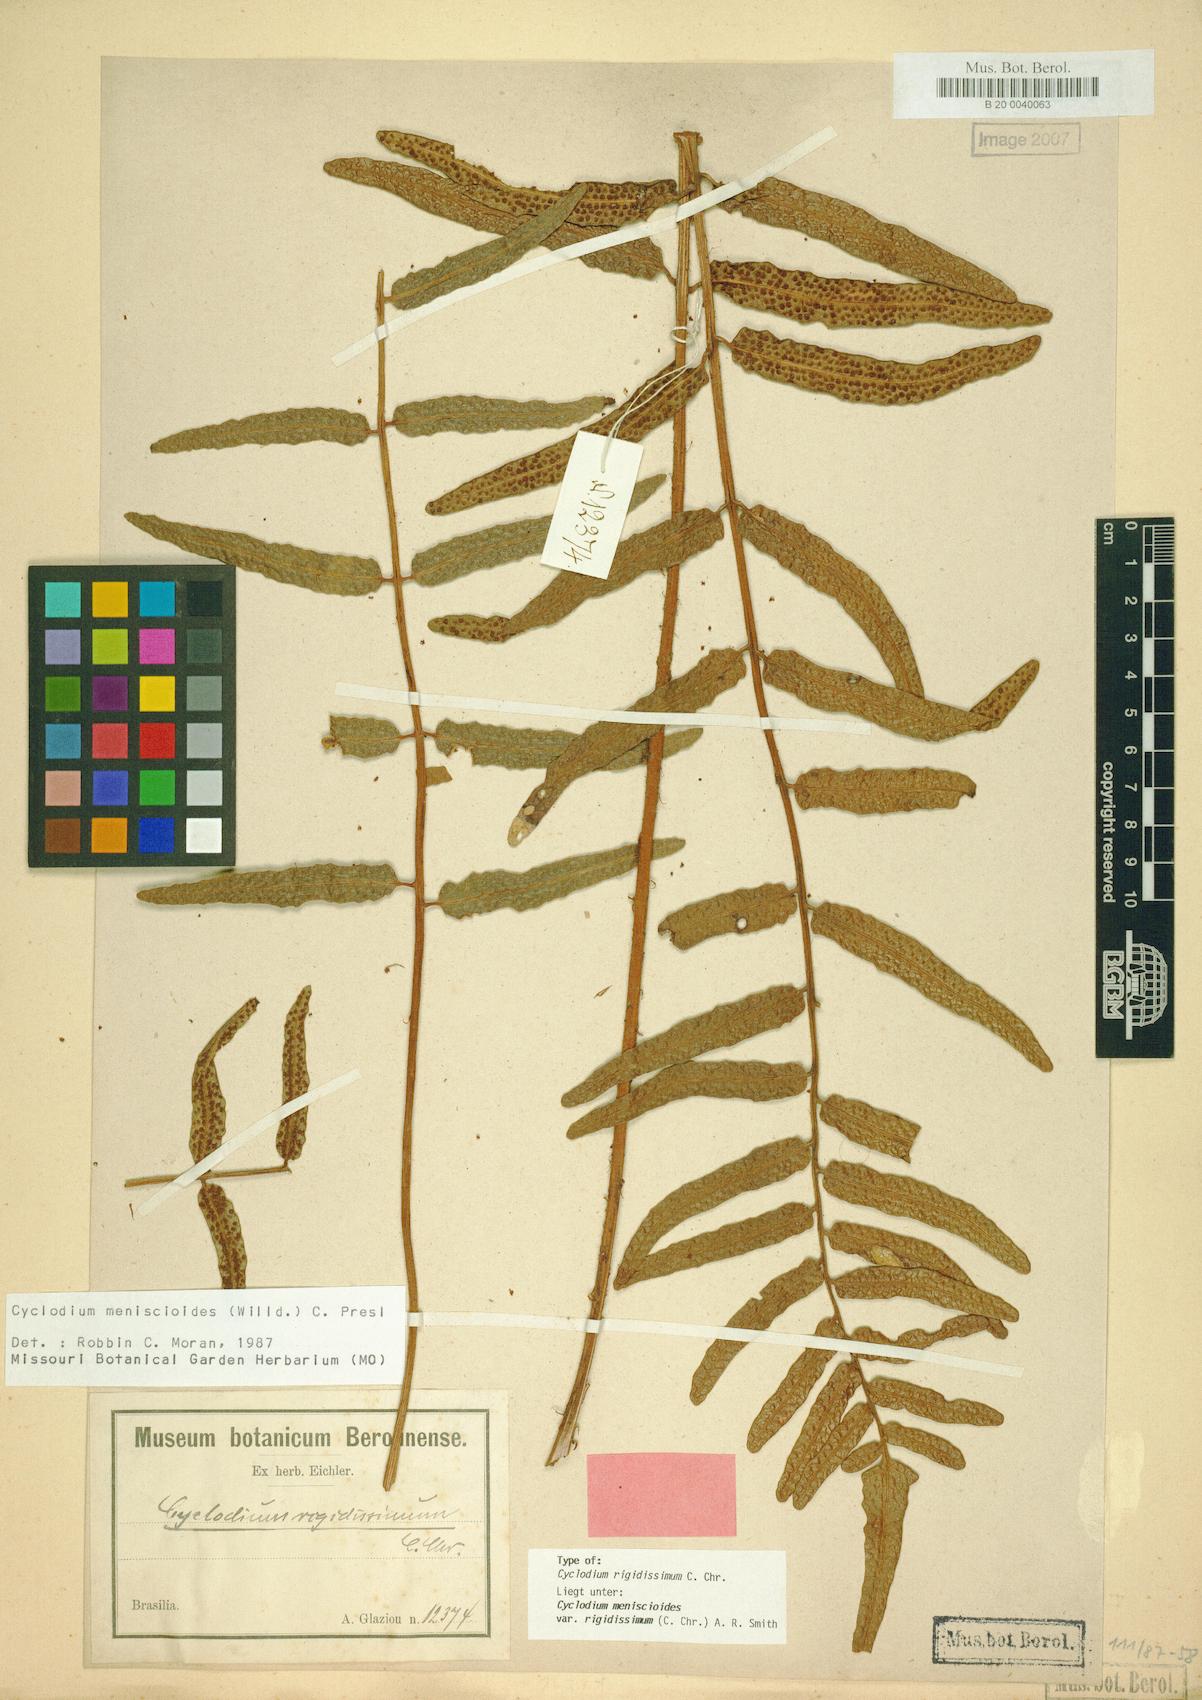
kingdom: Plantae
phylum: Tracheophyta
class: Polypodiopsida
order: Polypodiales
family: Dryopteridaceae
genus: Cyclodium
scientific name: Cyclodium meniscioides
